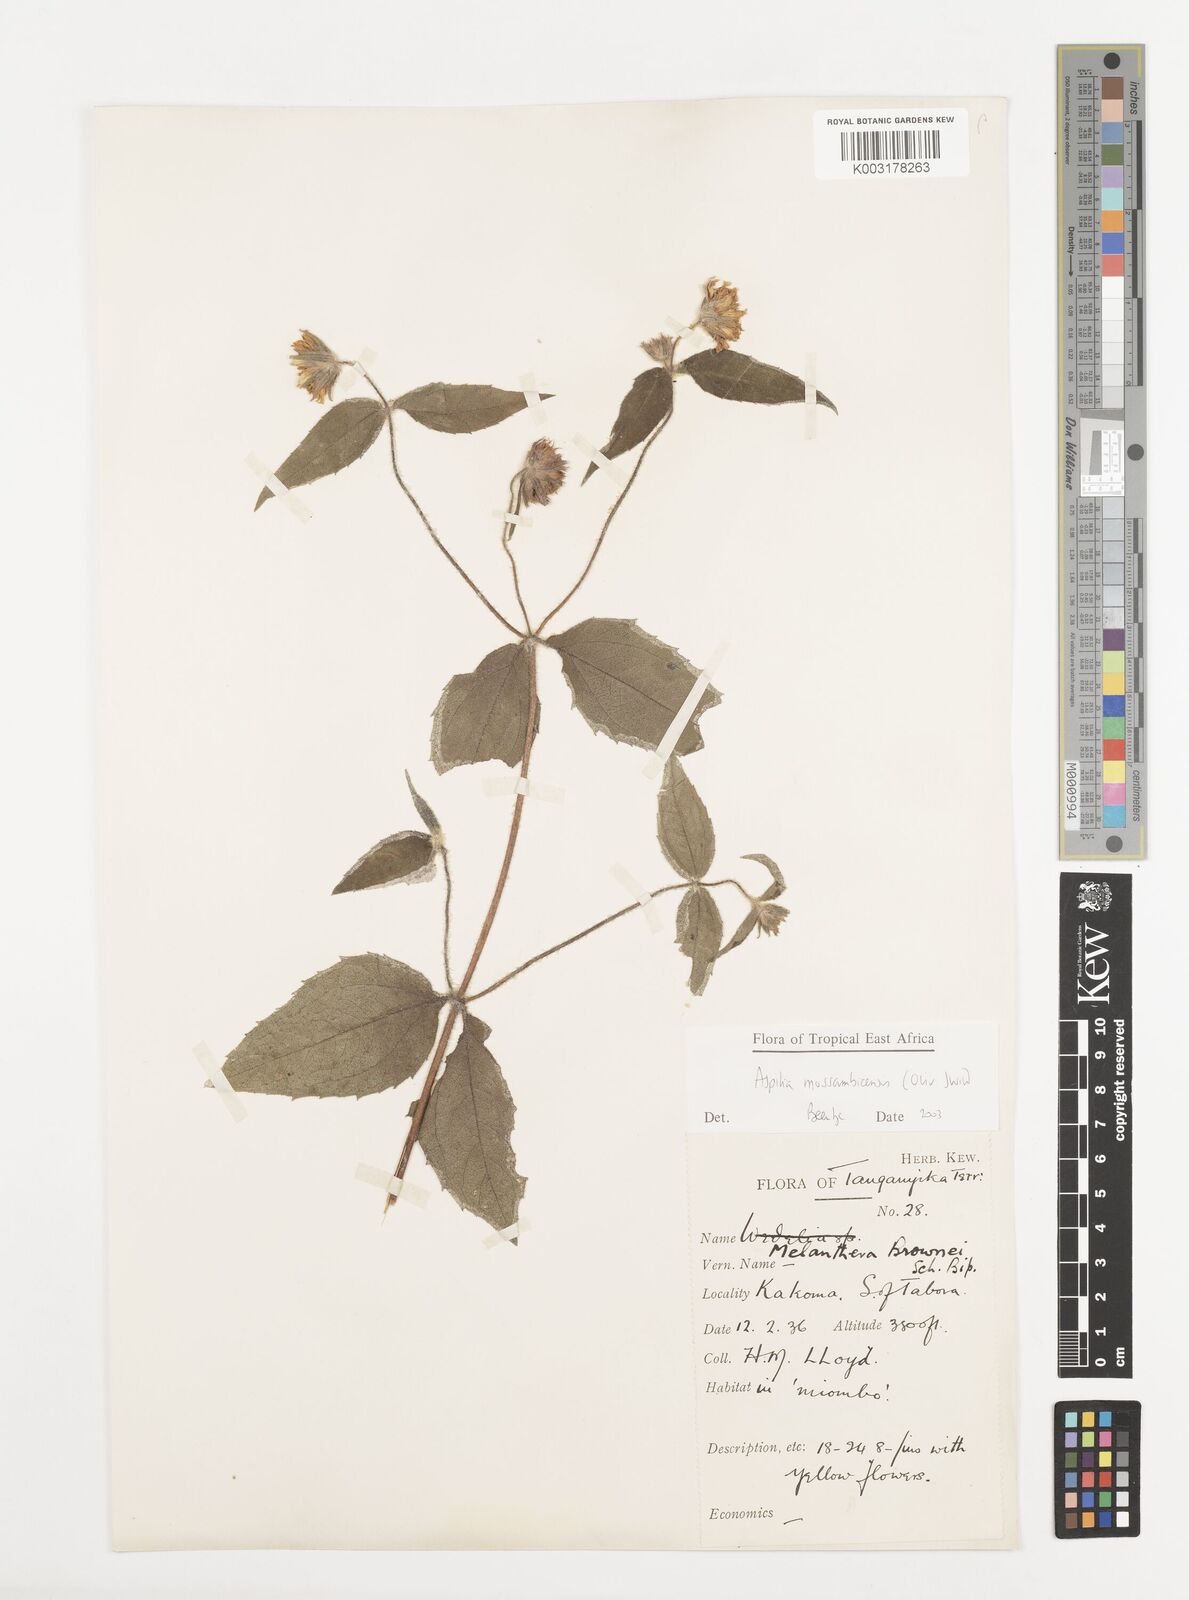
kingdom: Plantae
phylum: Tracheophyta
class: Magnoliopsida
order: Asterales
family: Asteraceae
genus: Aspilia
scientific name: Aspilia mossambicensis
